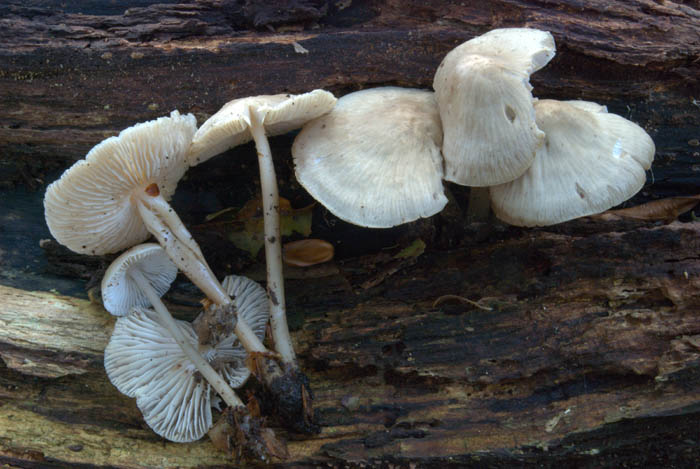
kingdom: Fungi
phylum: Basidiomycota
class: Agaricomycetes
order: Agaricales
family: Mycenaceae
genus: Mycena
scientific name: Mycena galericulata
